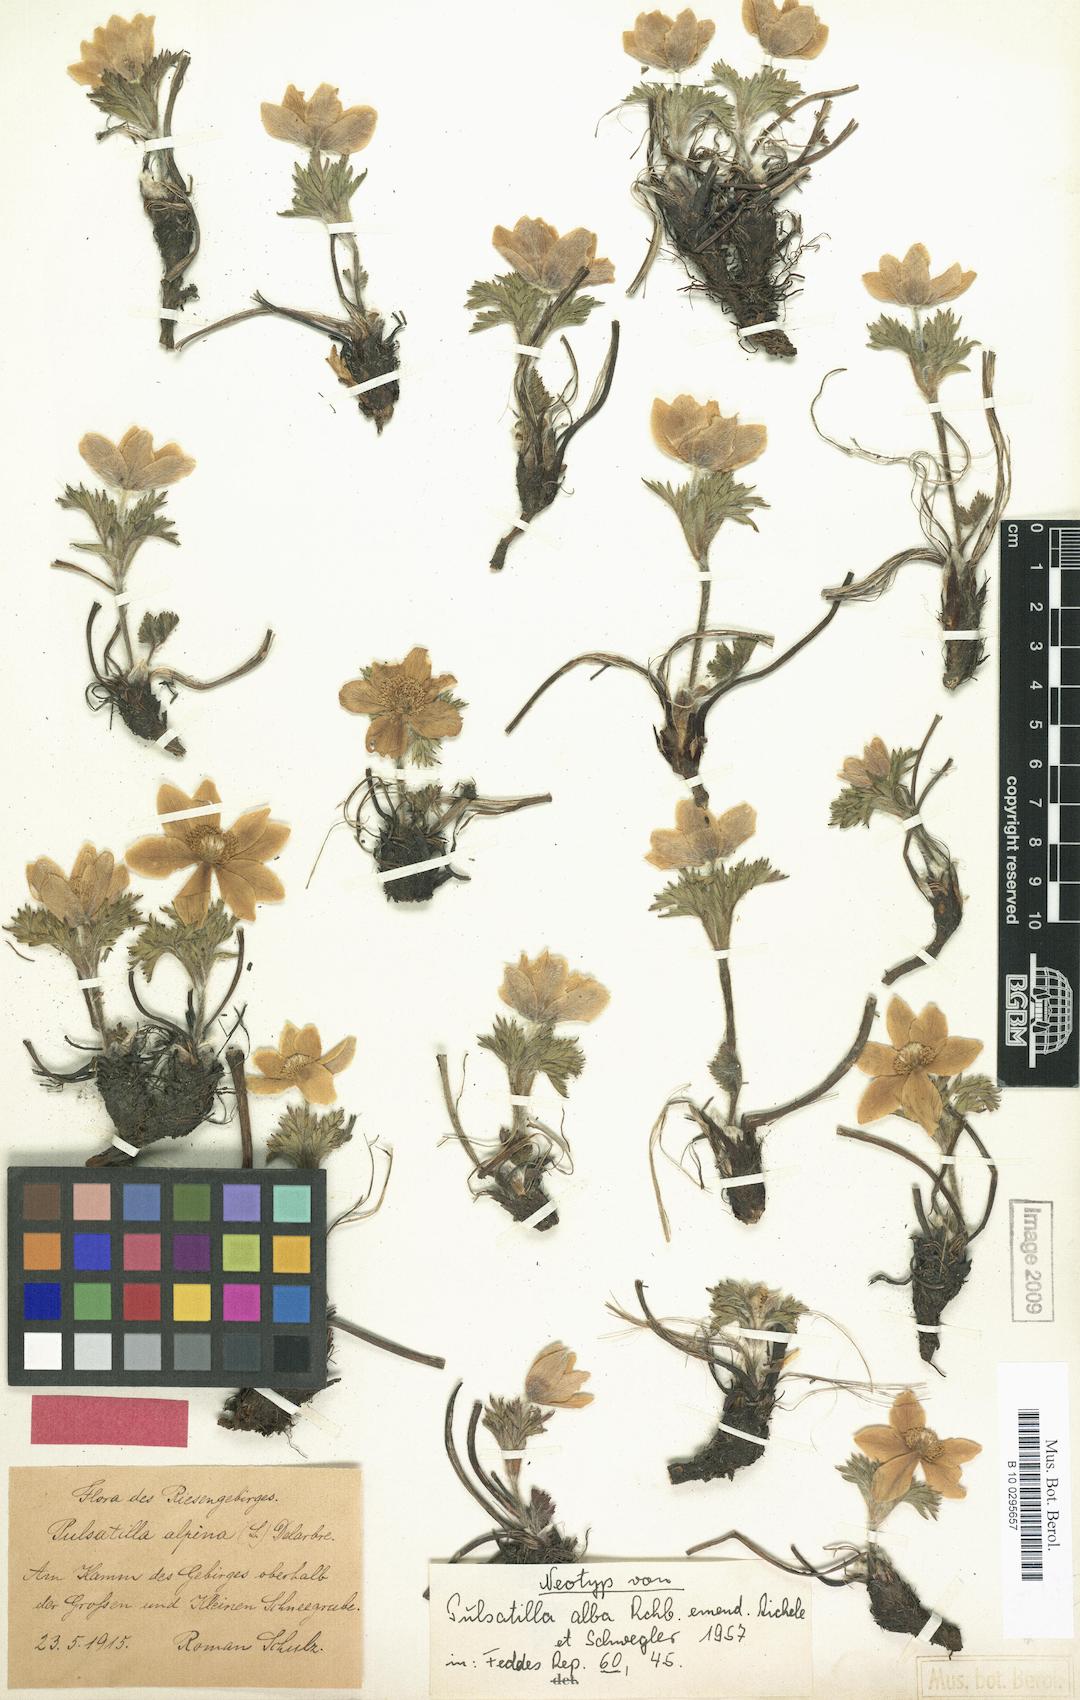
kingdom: Plantae
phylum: Tracheophyta
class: Magnoliopsida
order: Ranunculales
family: Ranunculaceae
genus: Pulsatilla
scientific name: Pulsatilla alpina
